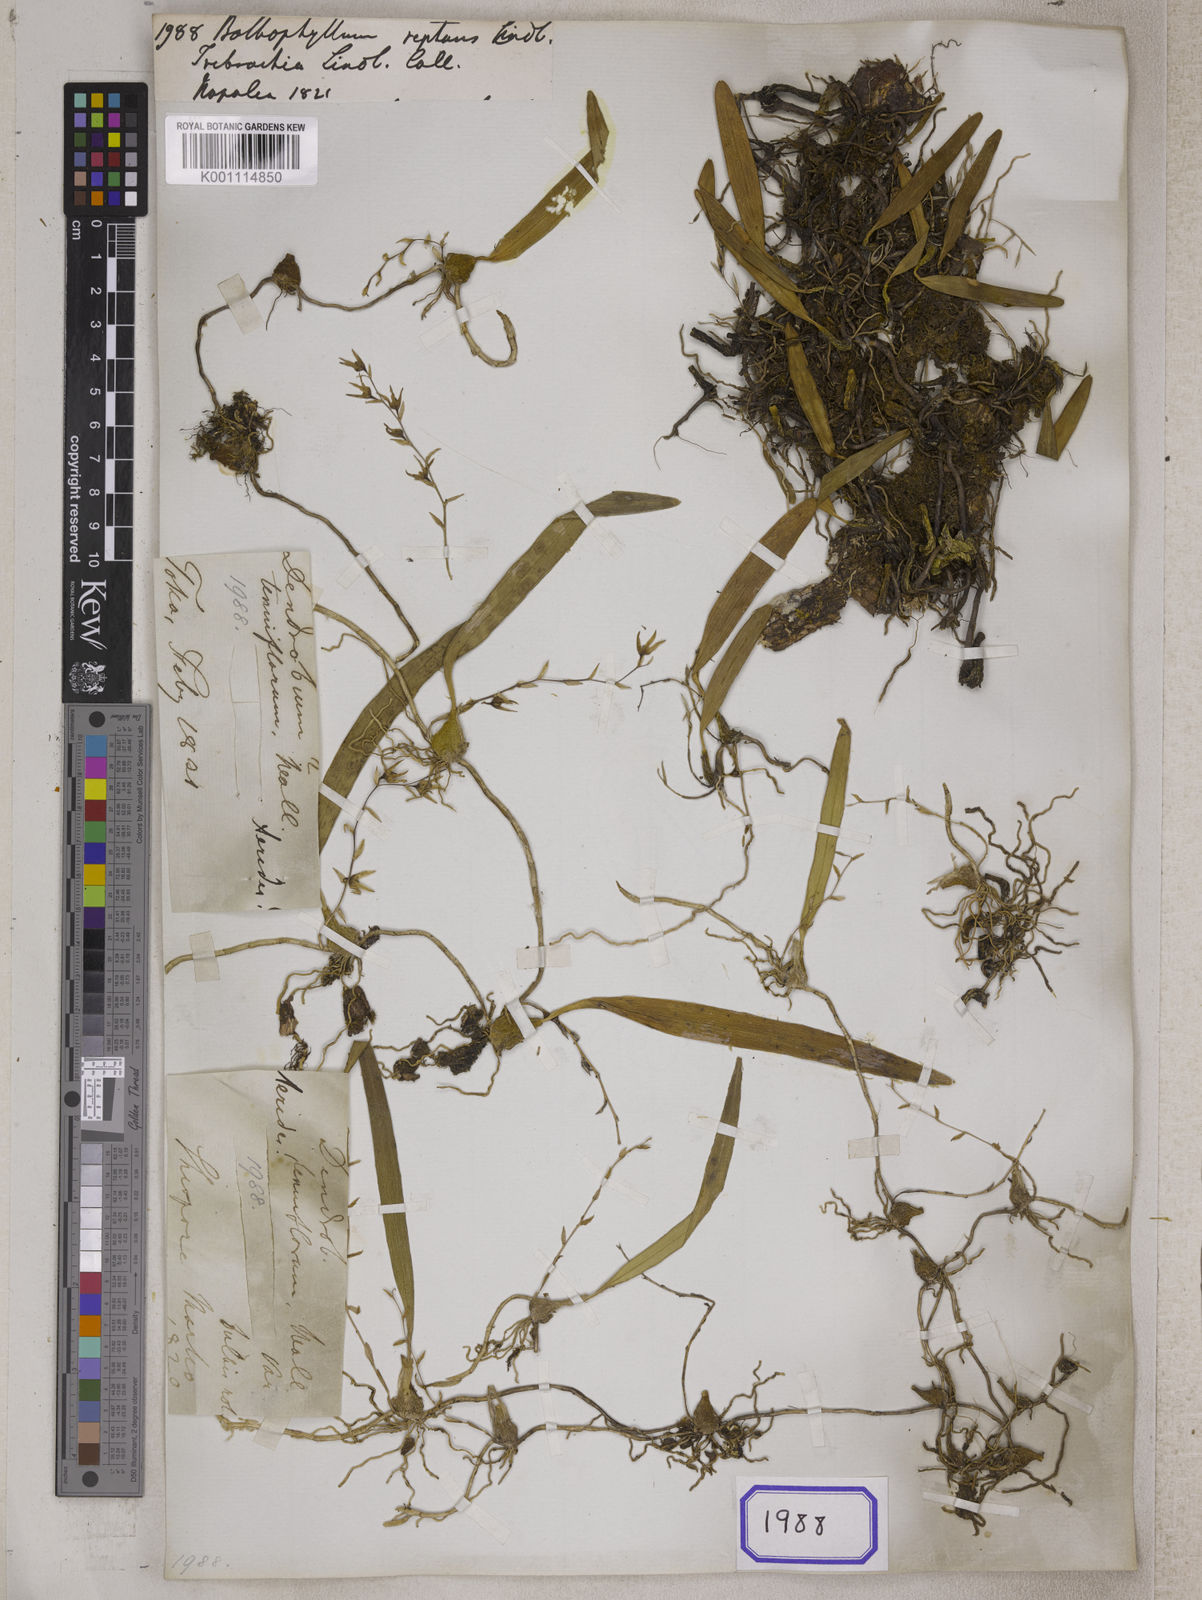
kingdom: Plantae
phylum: Tracheophyta
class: Liliopsida
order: Asparagales
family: Orchidaceae
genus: Bulbophyllum
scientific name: Bulbophyllum
